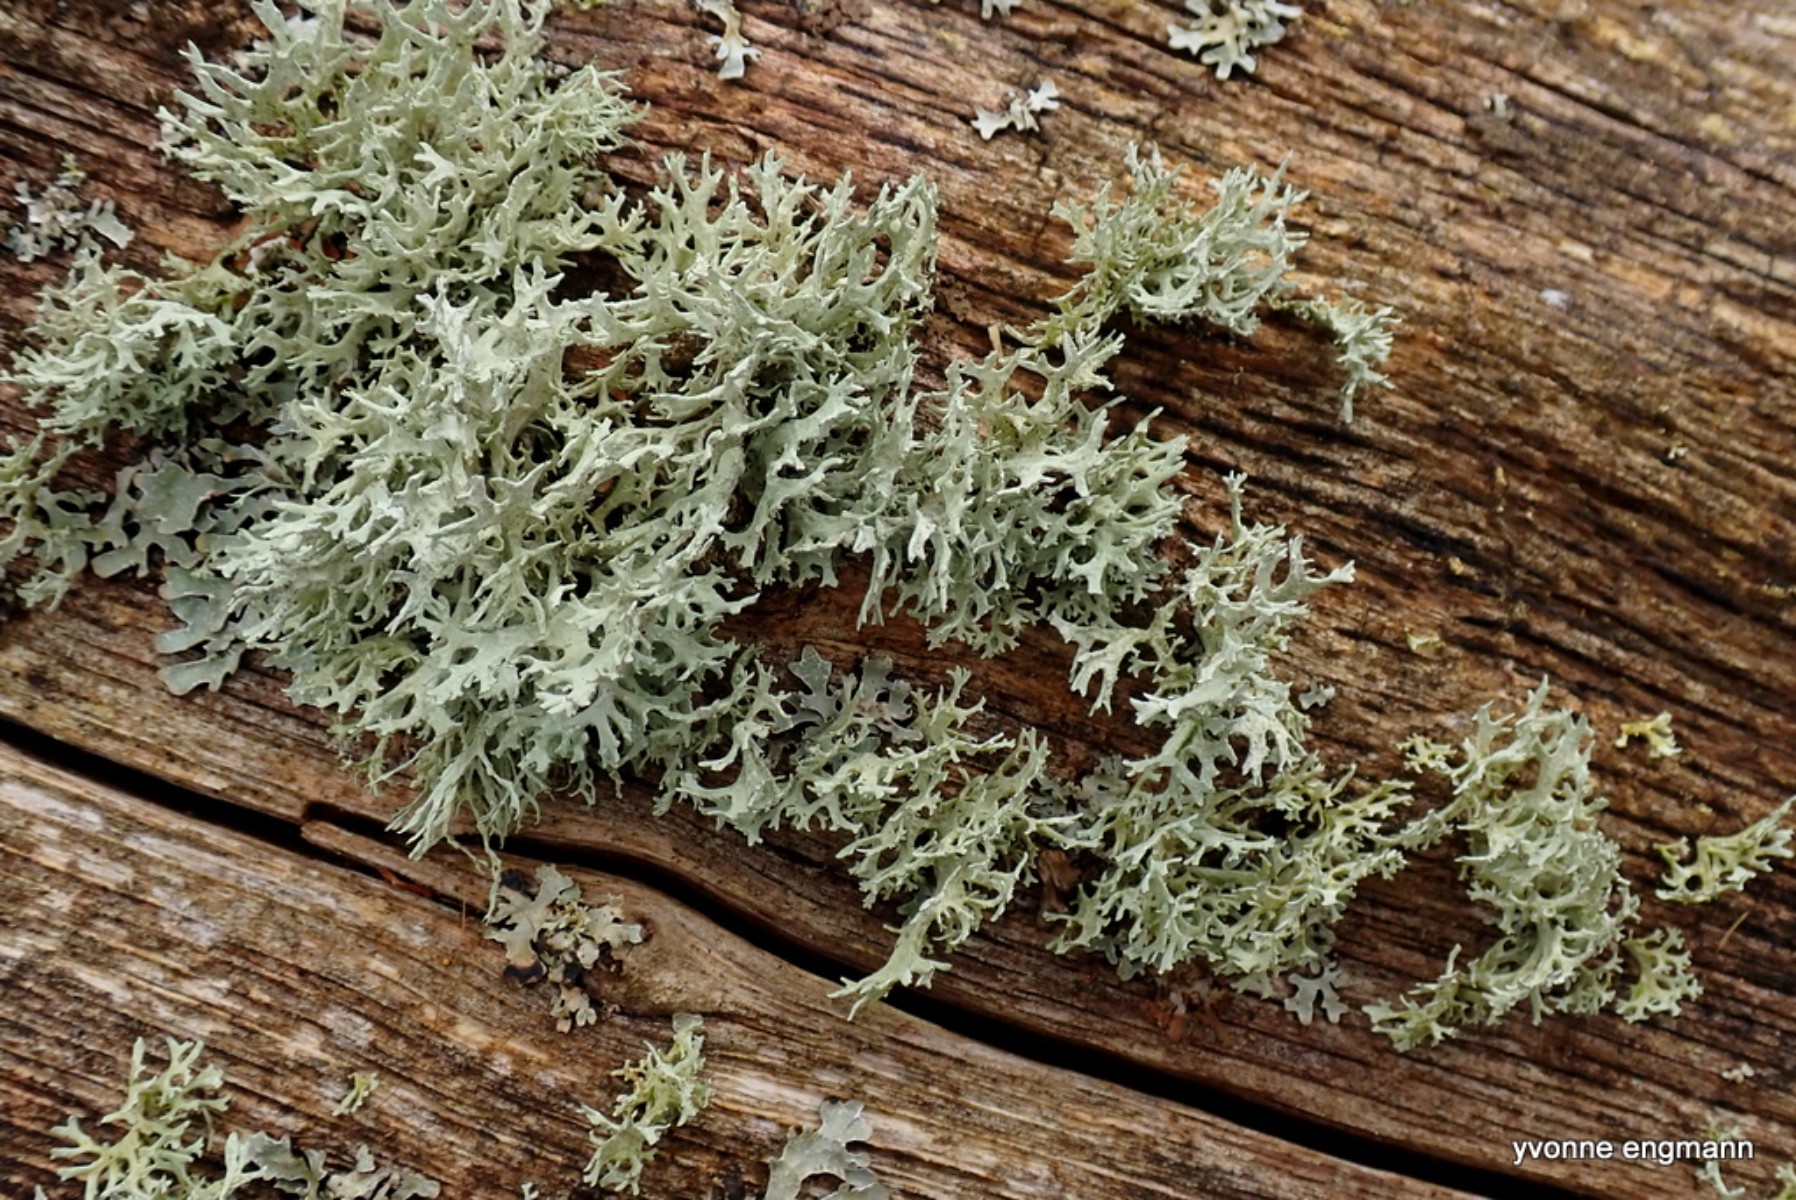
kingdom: Fungi
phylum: Ascomycota
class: Lecanoromycetes
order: Lecanorales
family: Parmeliaceae
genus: Evernia
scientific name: Evernia prunastri
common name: almindelig slåenlav
